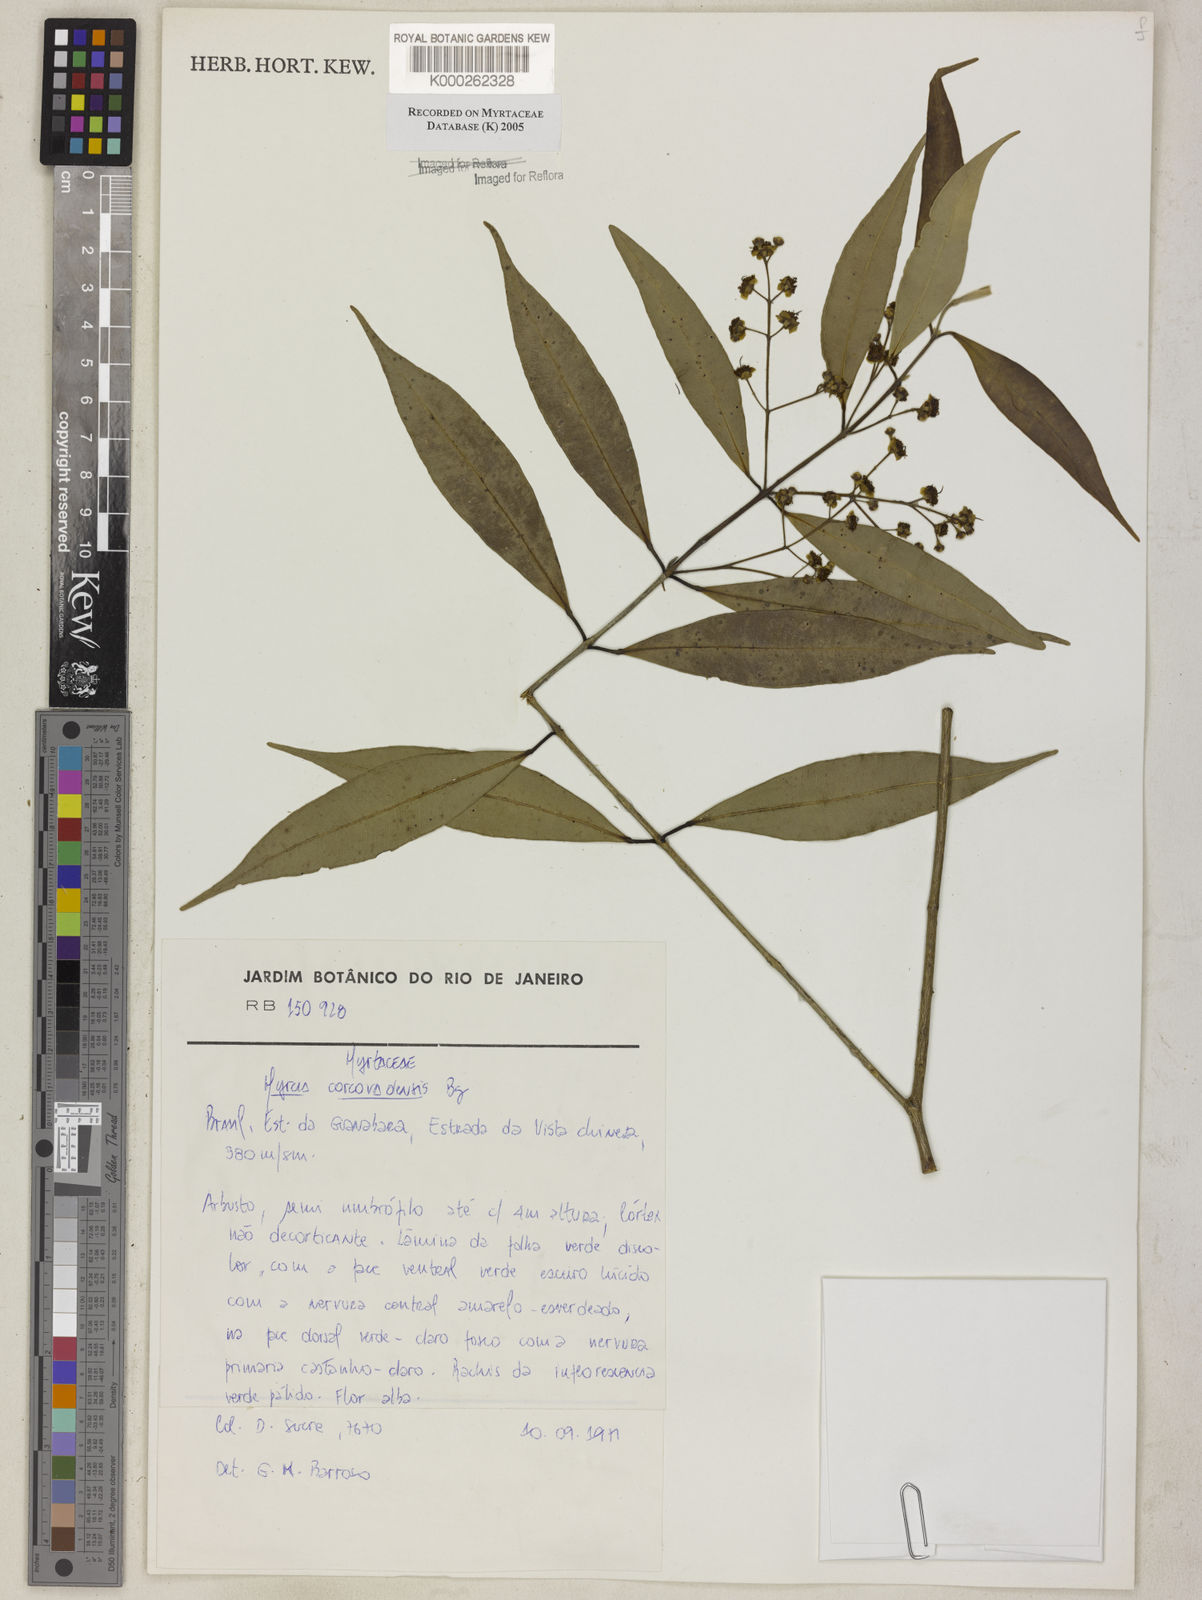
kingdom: Plantae
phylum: Tracheophyta
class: Magnoliopsida
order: Myrtales
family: Myrtaceae
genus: Myrcia
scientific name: Myrcia splendens
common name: Surinam cherry
